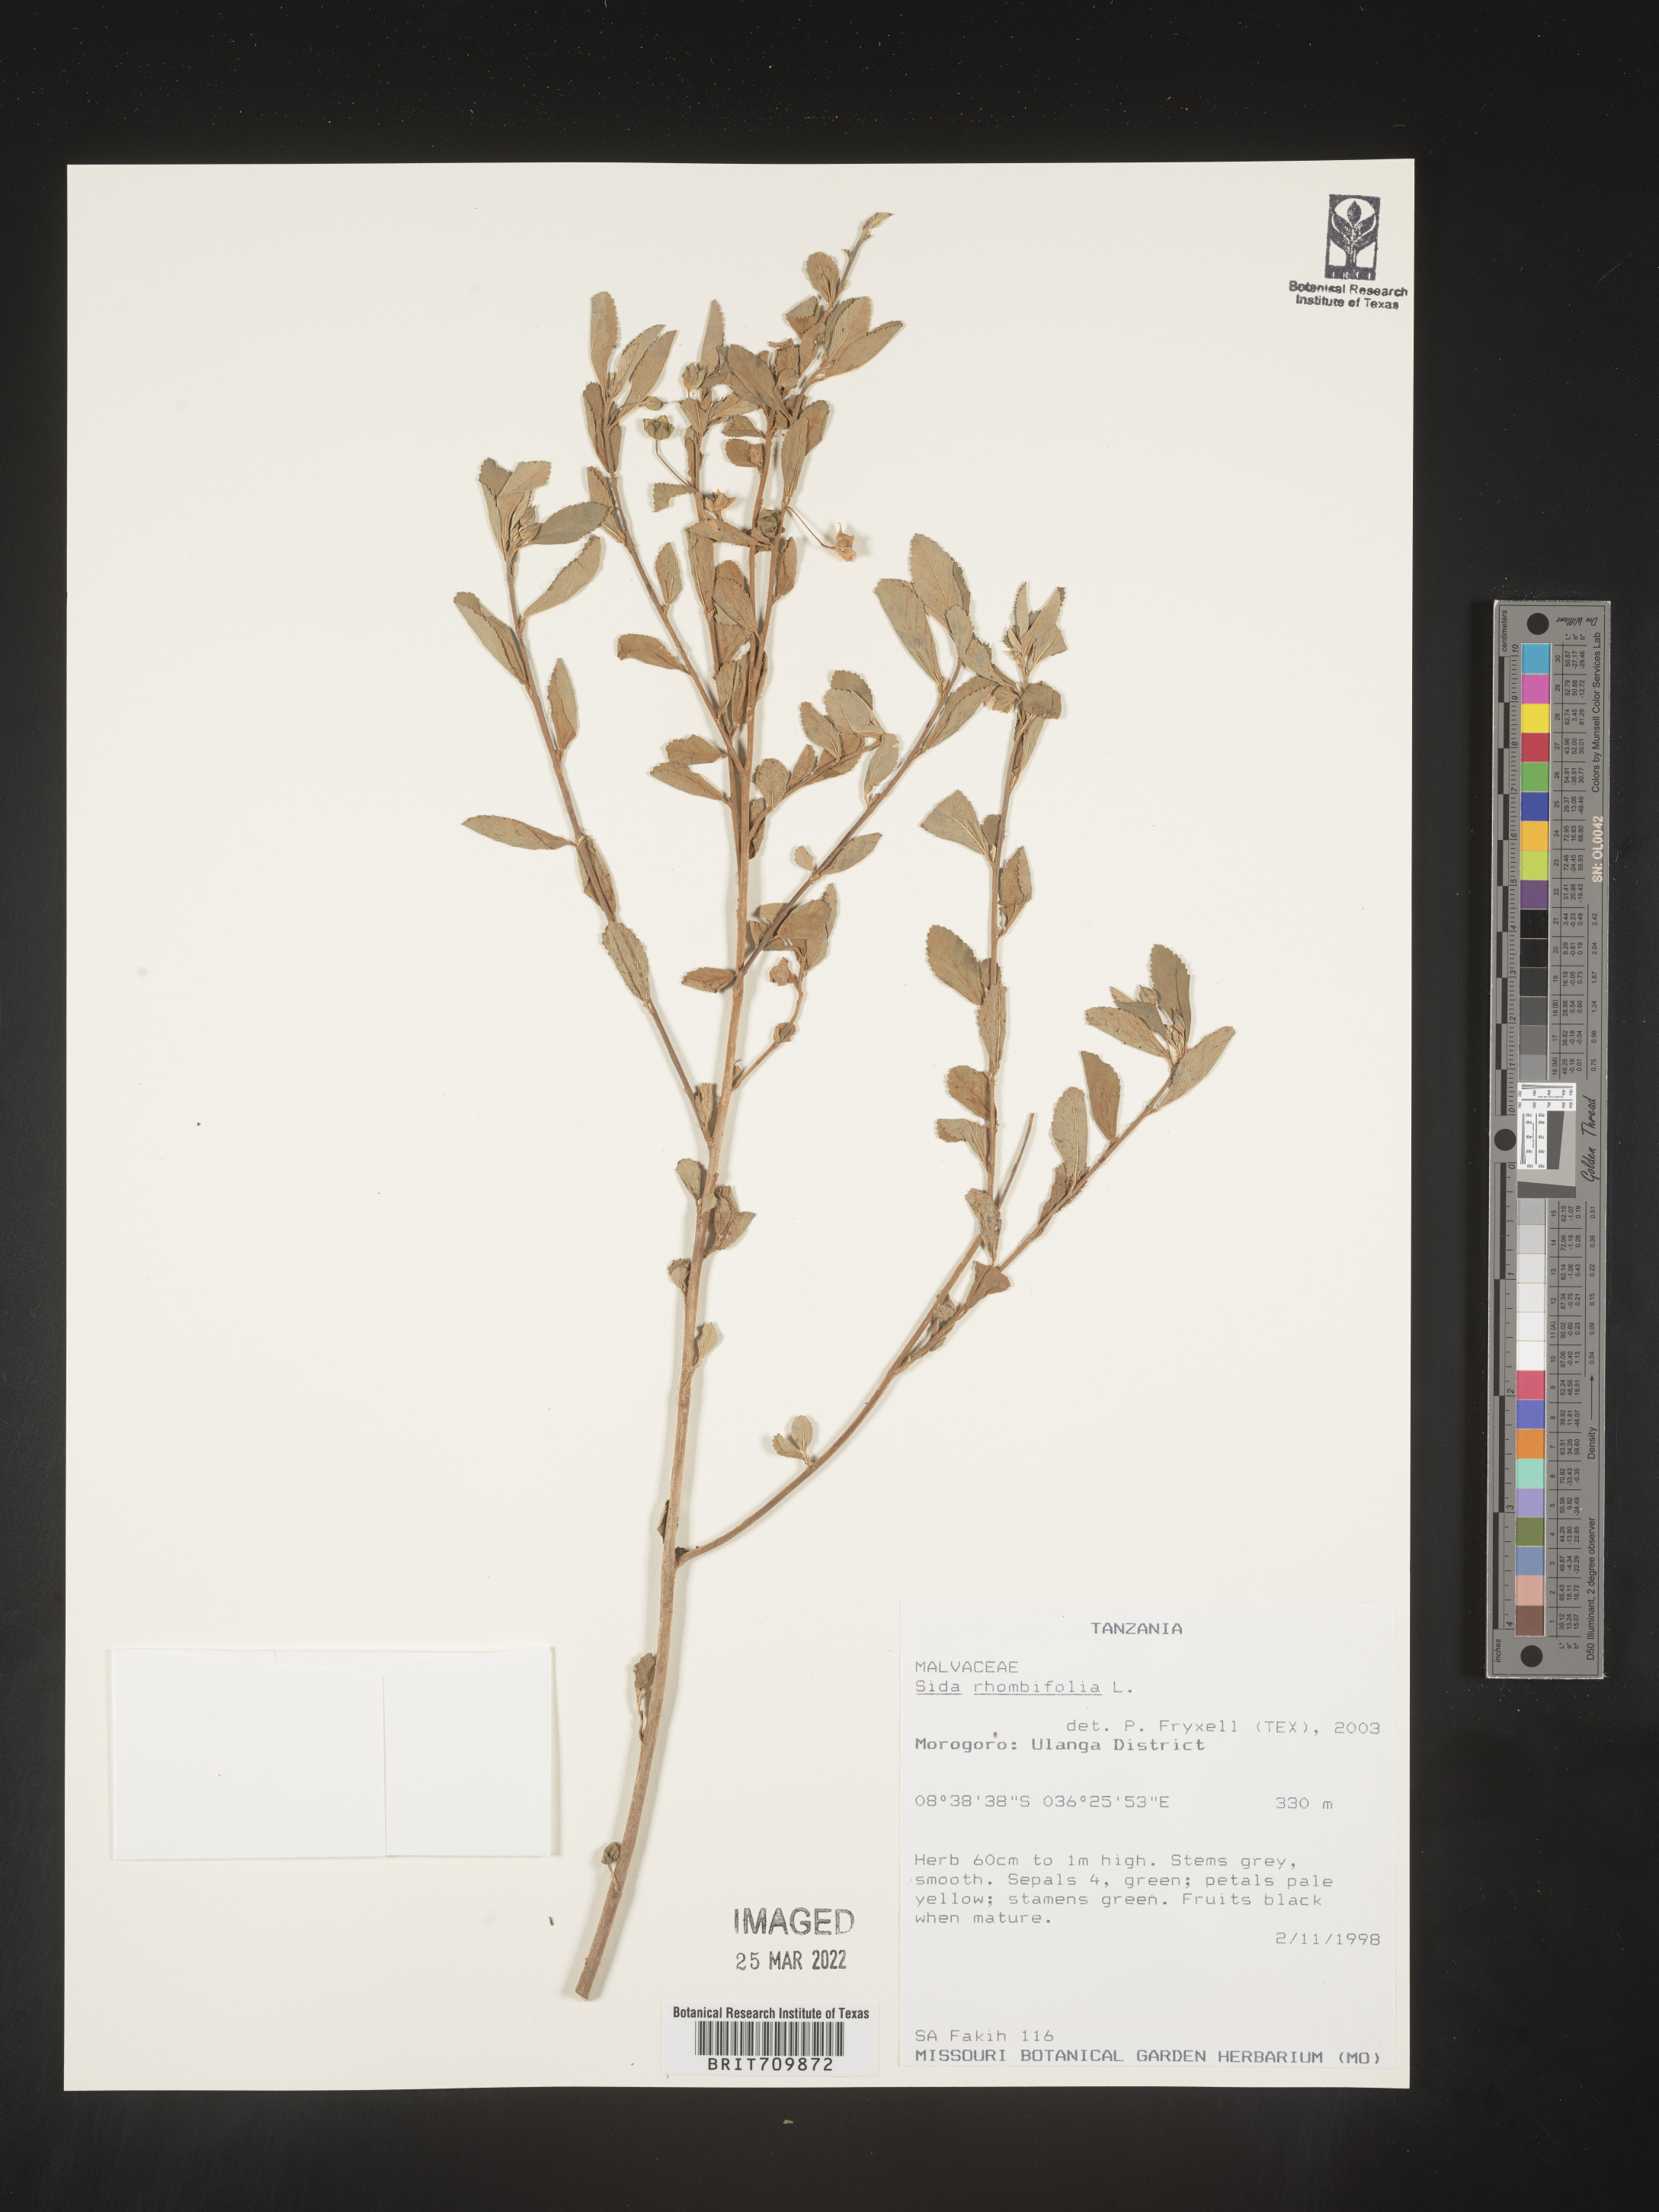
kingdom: Plantae
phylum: Tracheophyta
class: Magnoliopsida
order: Malvales
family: Malvaceae
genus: Sida
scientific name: Sida
